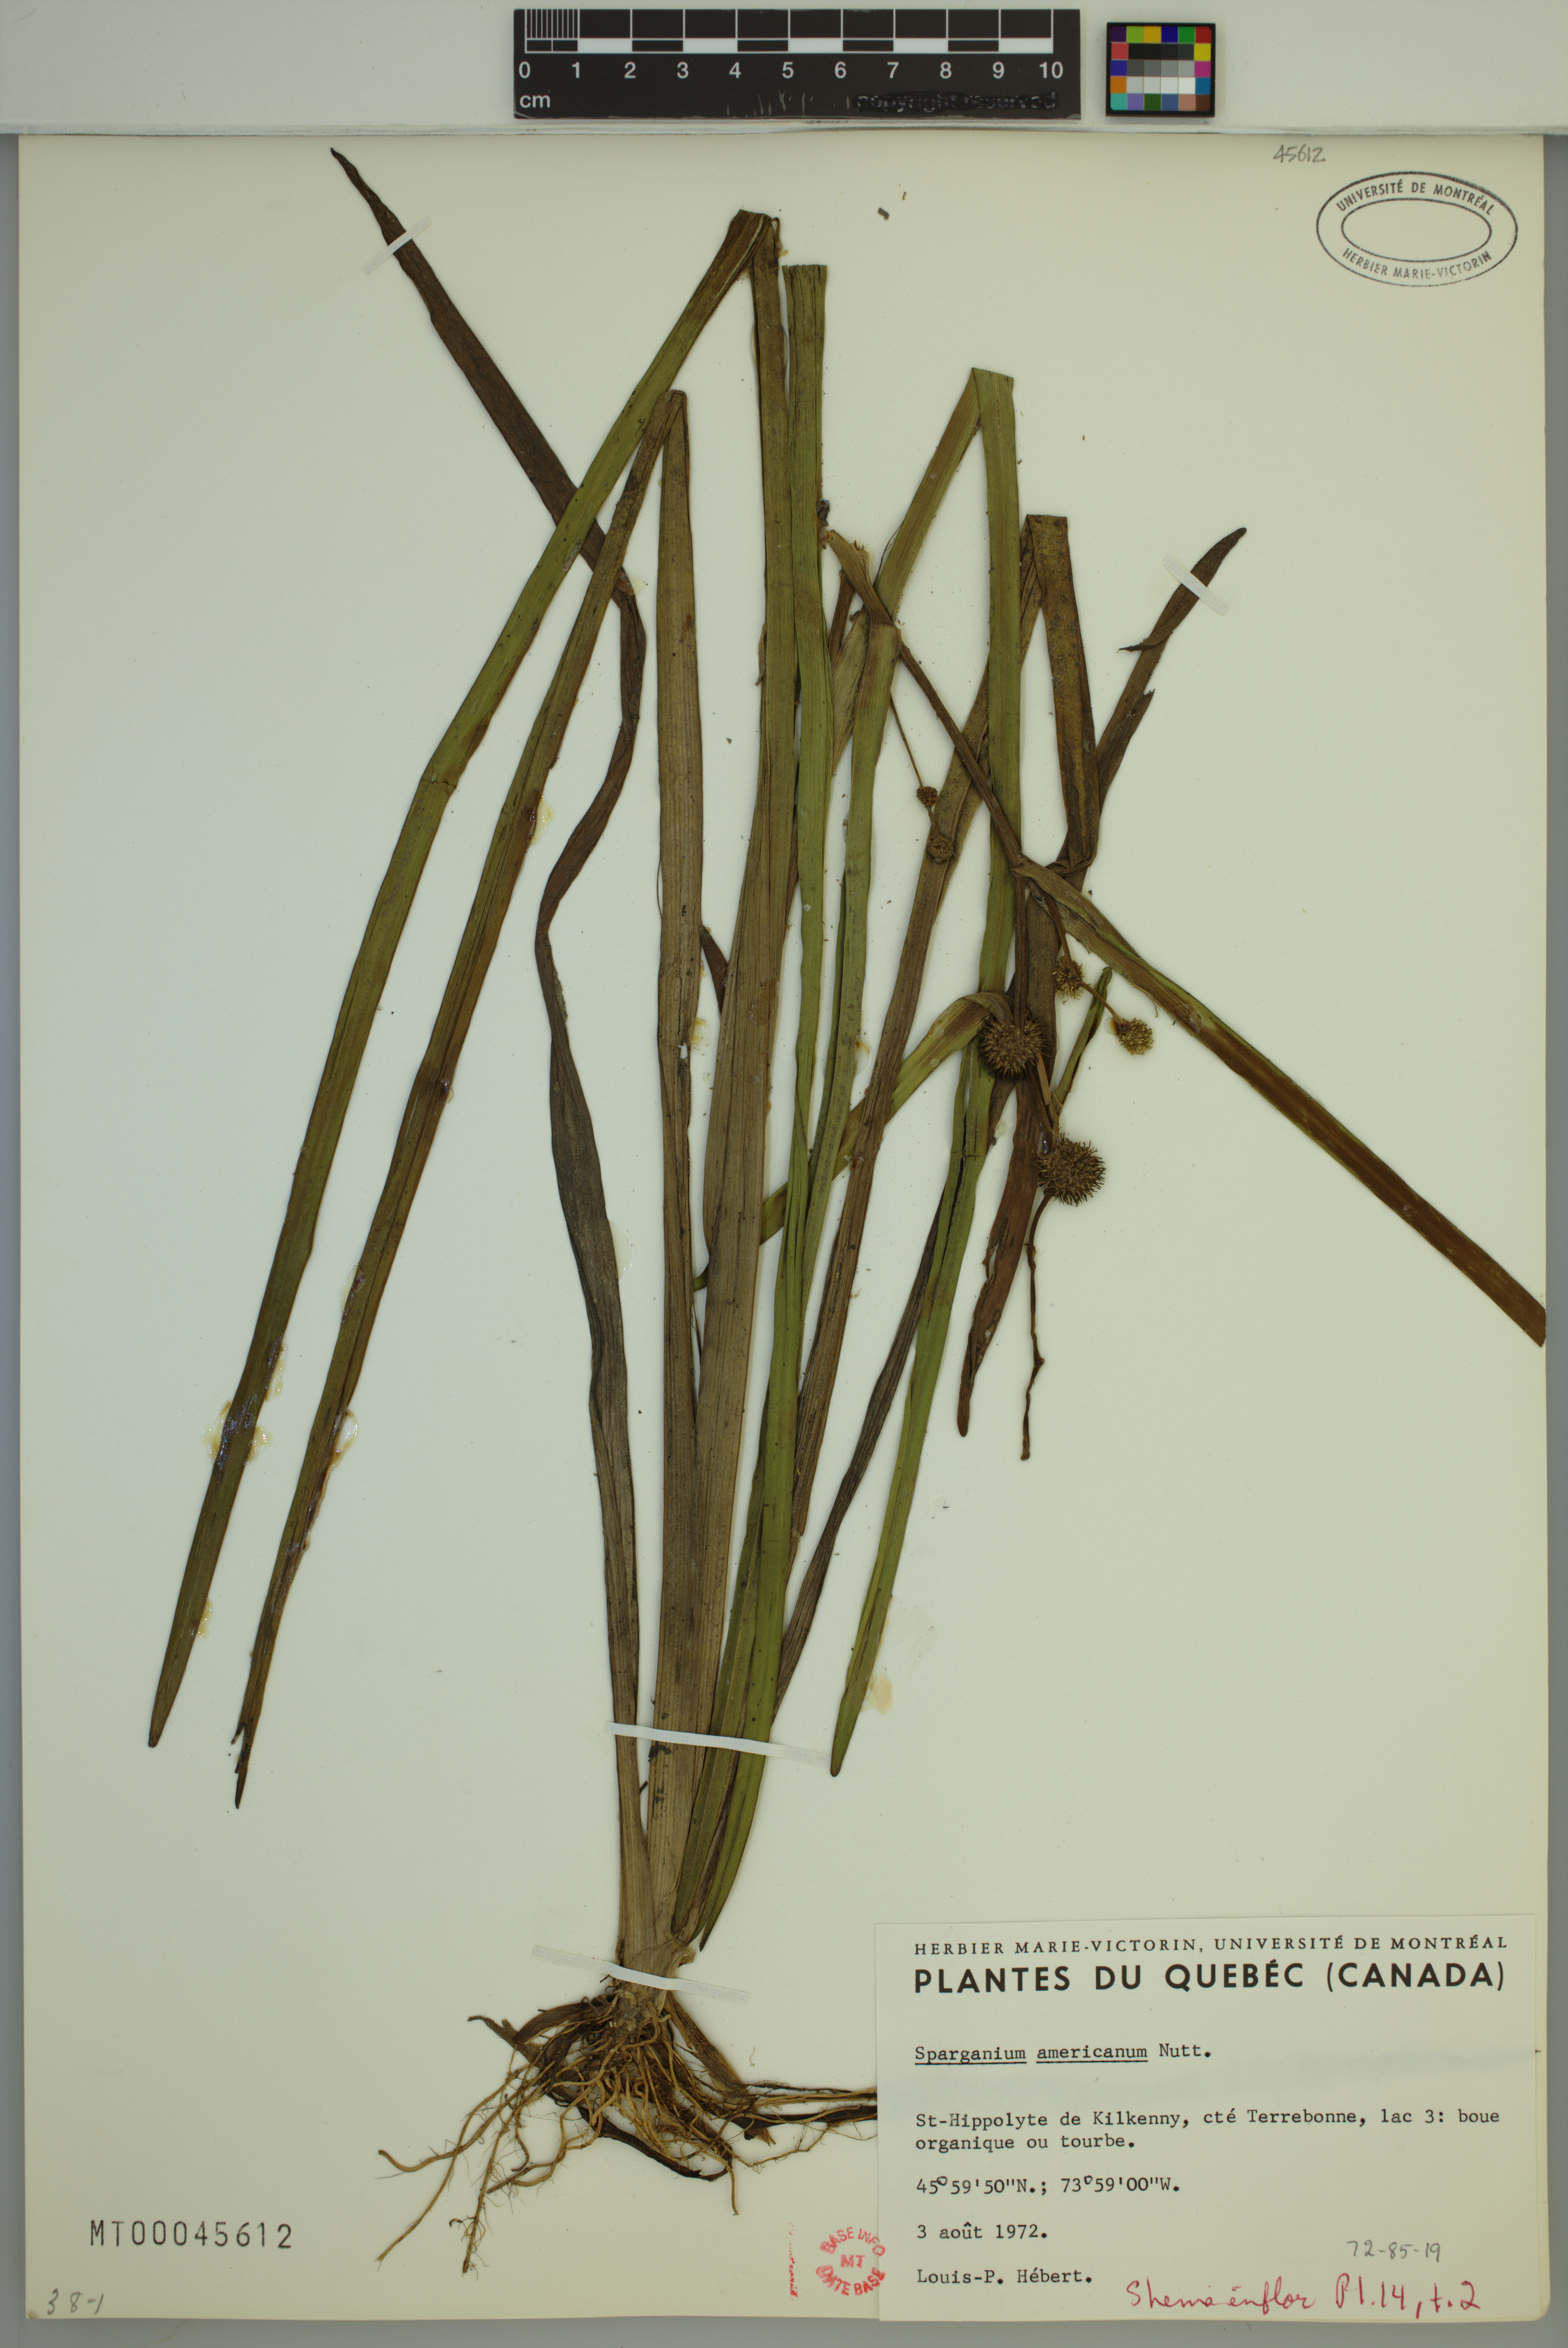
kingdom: Plantae
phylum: Tracheophyta
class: Liliopsida
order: Poales
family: Typhaceae
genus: Sparganium
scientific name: Sparganium americanum
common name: American burreed
